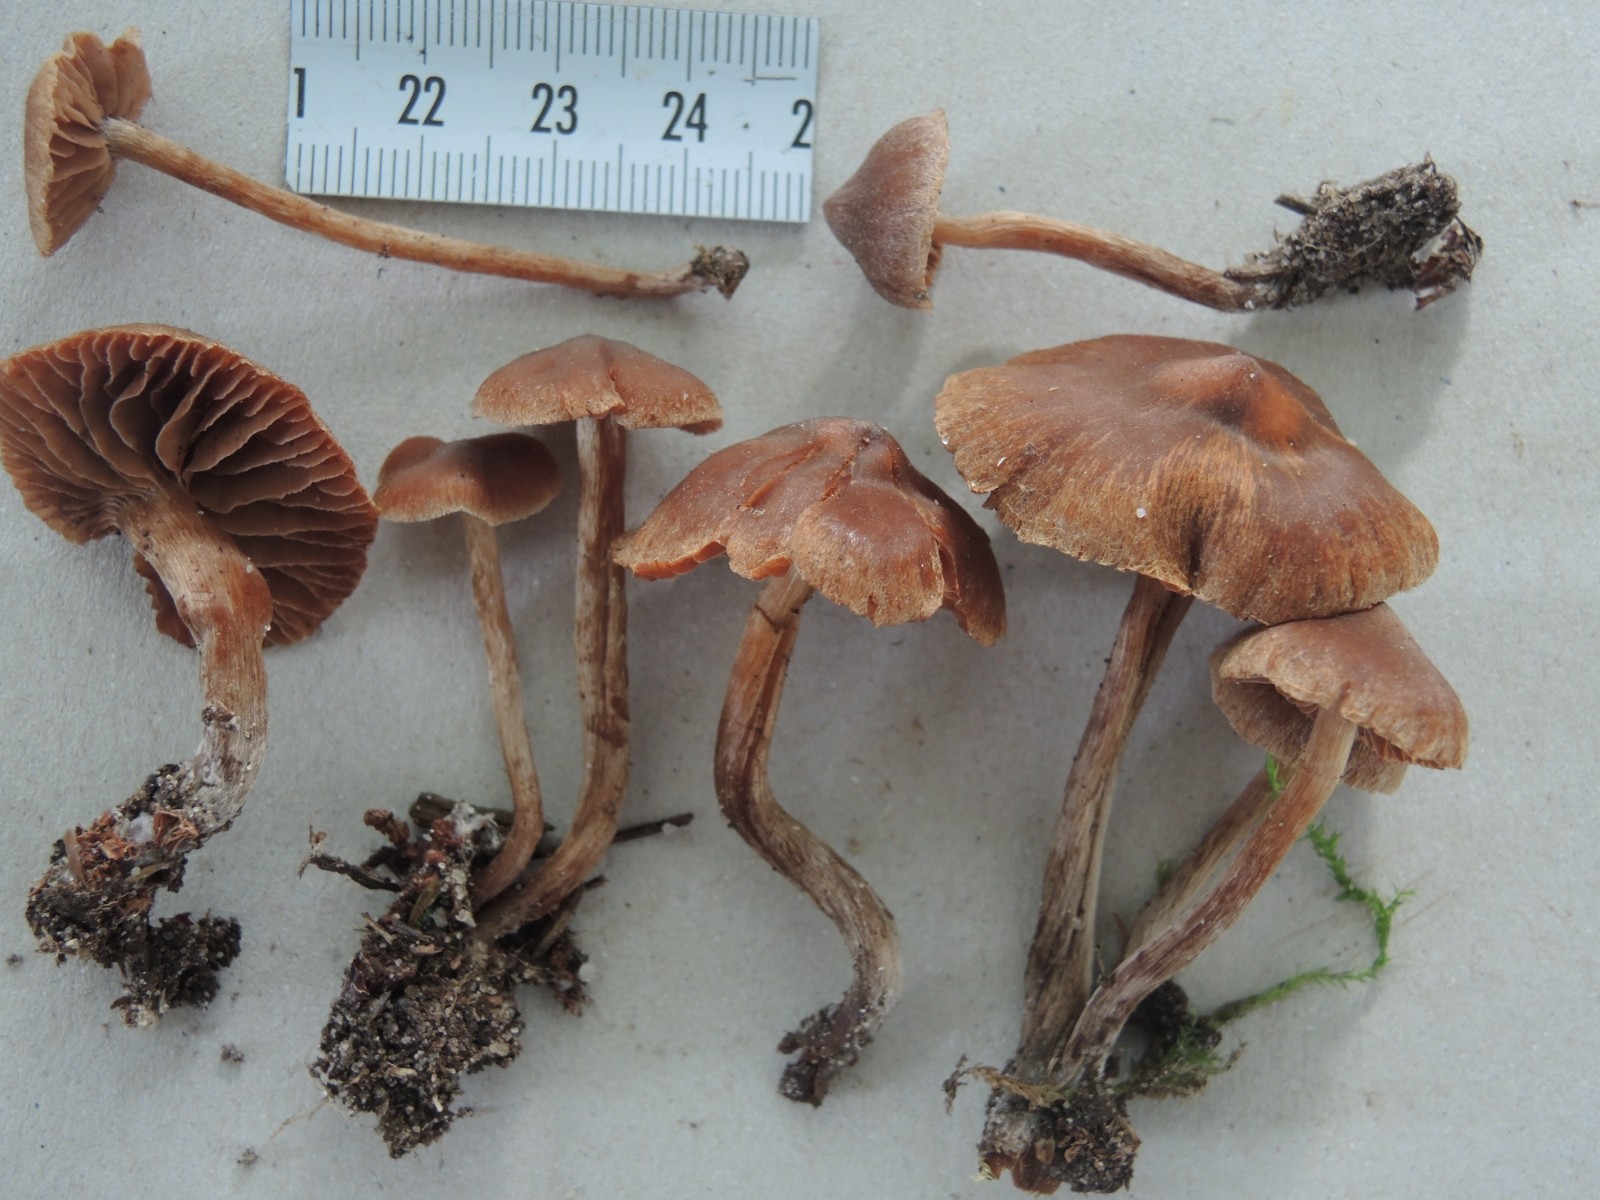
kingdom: Fungi
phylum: Basidiomycota
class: Agaricomycetes
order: Agaricales
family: Cortinariaceae
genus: Cortinarius
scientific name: Cortinarius
